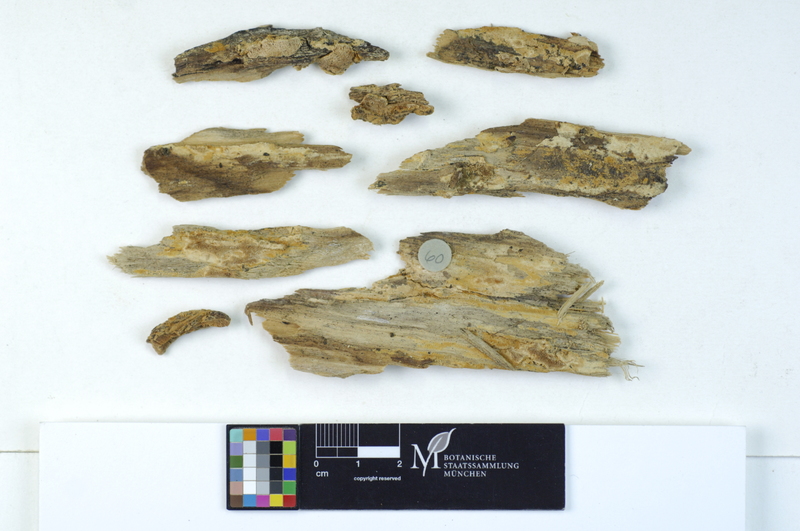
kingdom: Fungi
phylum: Basidiomycota
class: Agaricomycetes
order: Hymenochaetales
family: Oxyporaceae
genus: Oxyporus
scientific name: Oxyporus obducens
